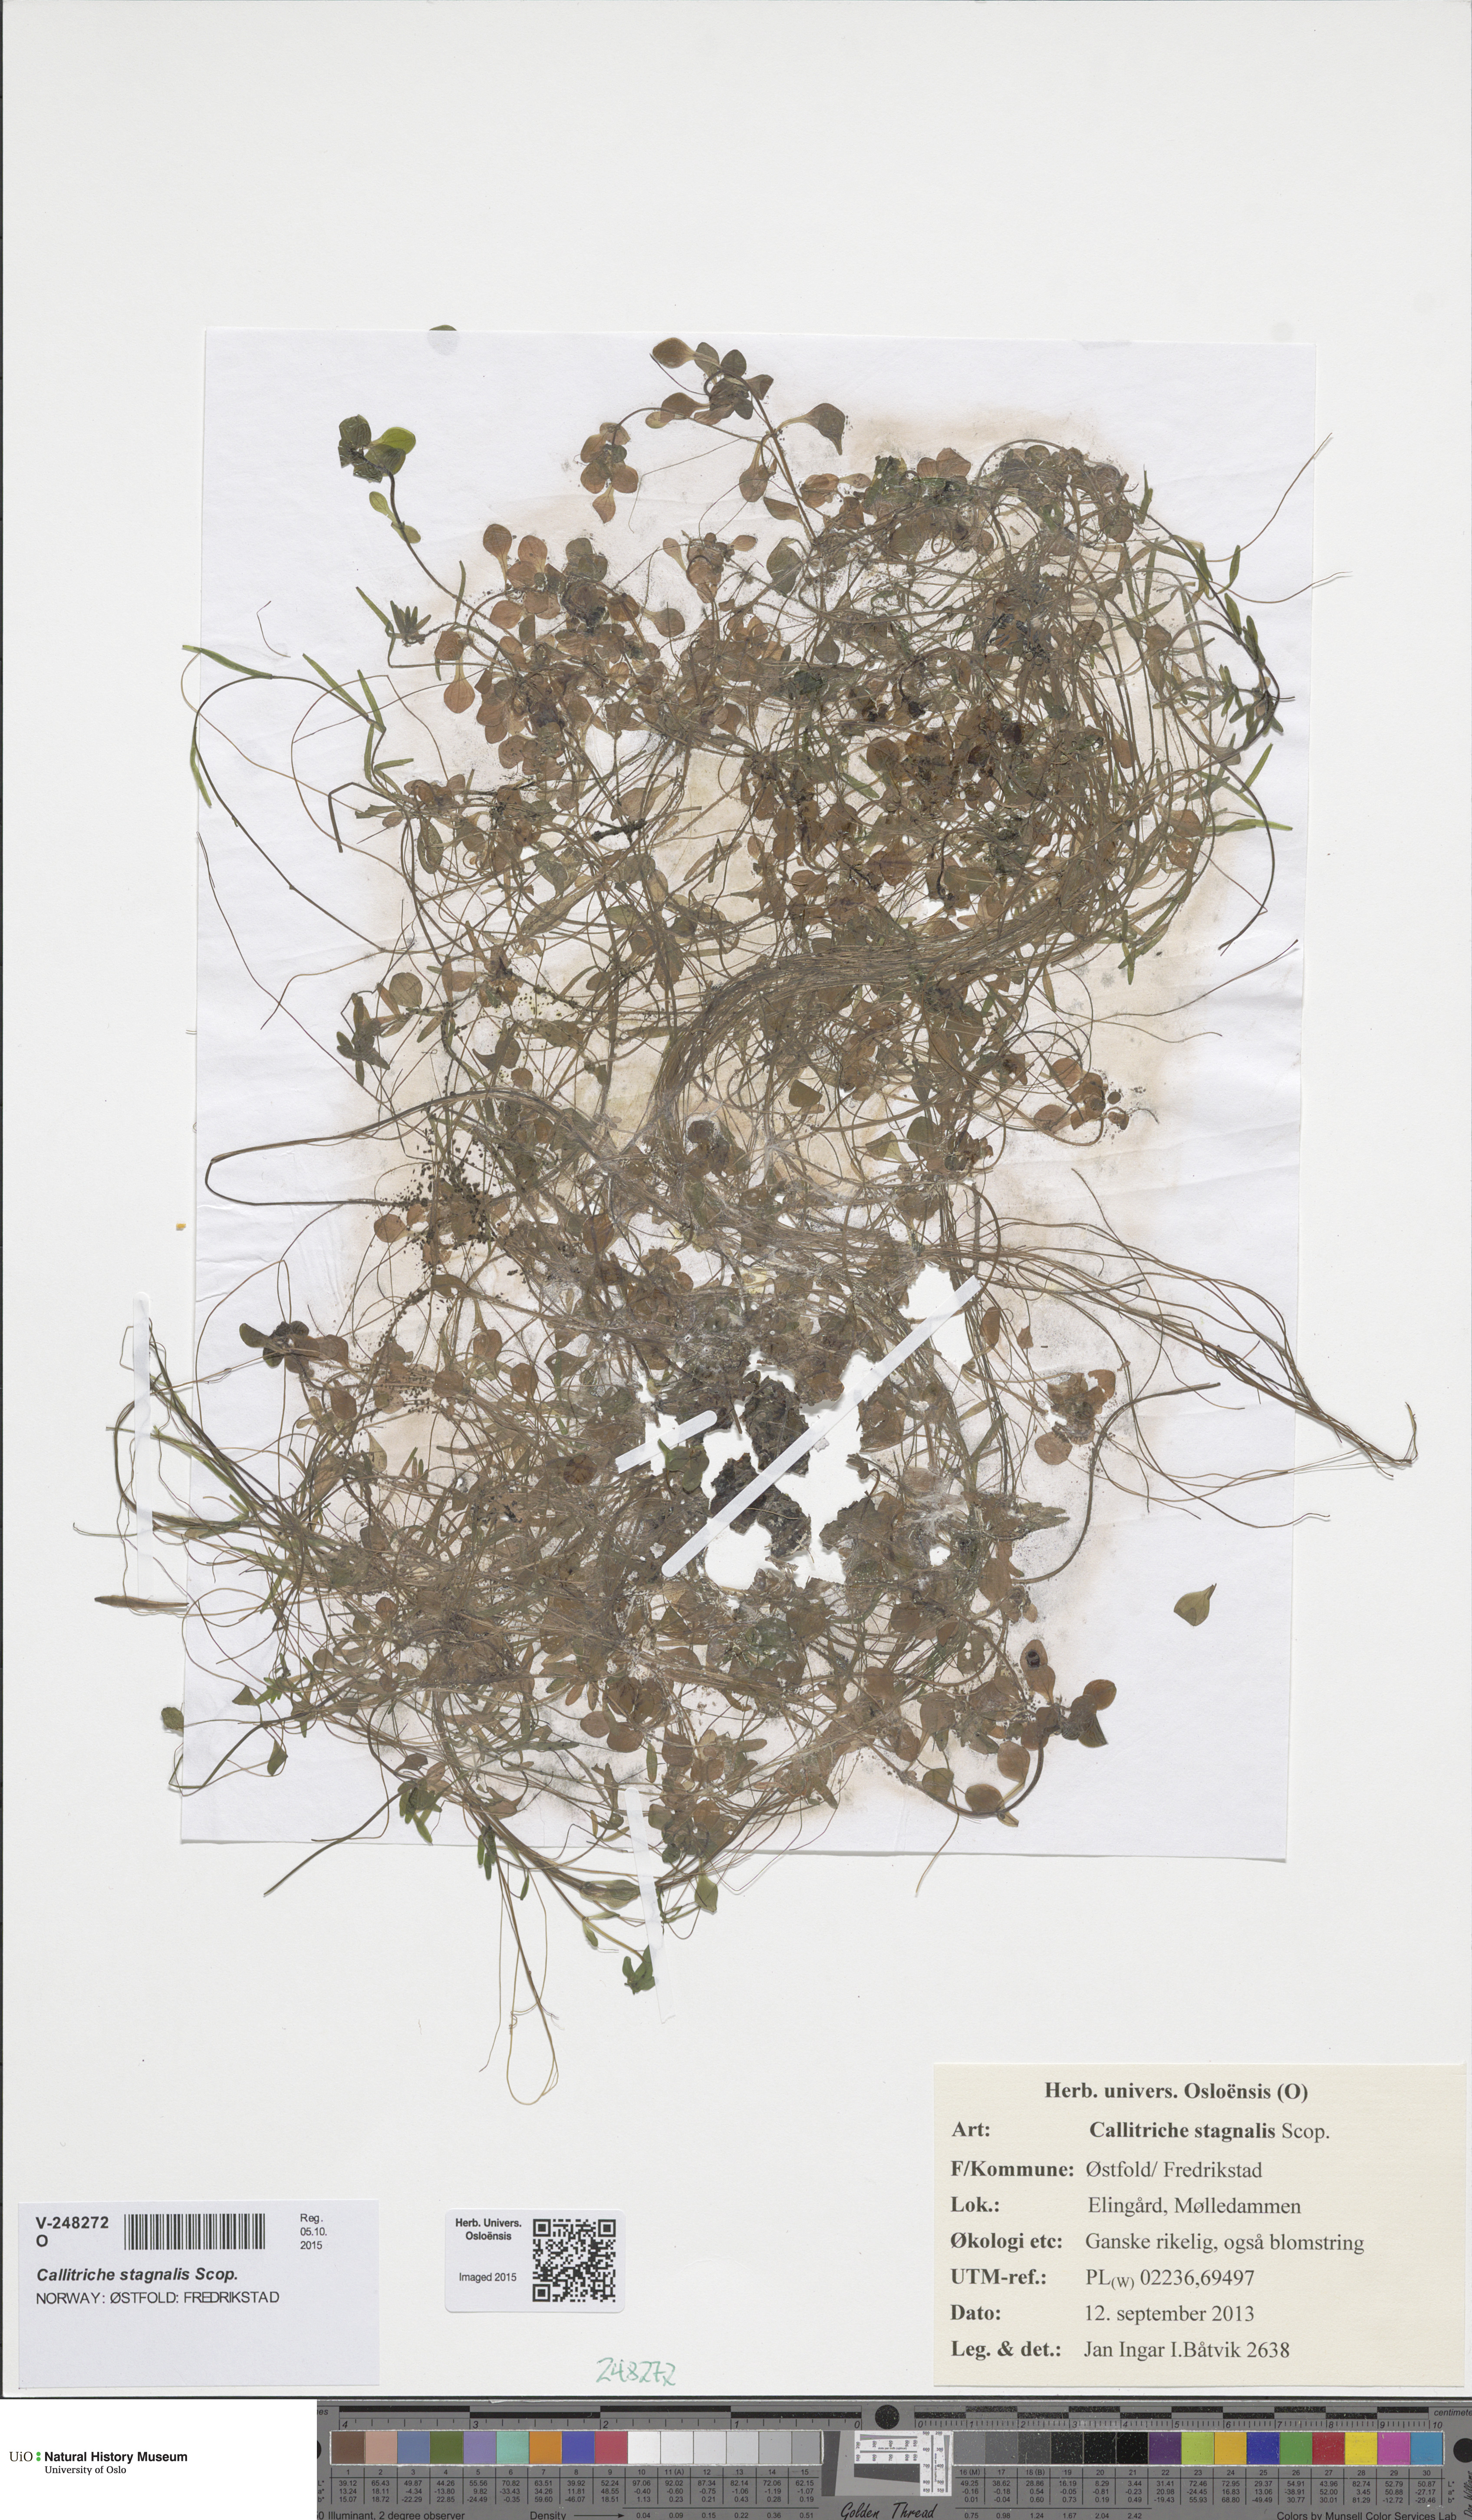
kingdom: Plantae
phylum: Tracheophyta
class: Magnoliopsida
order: Lamiales
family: Plantaginaceae
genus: Callitriche
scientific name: Callitriche stagnalis
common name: Common water-starwort
